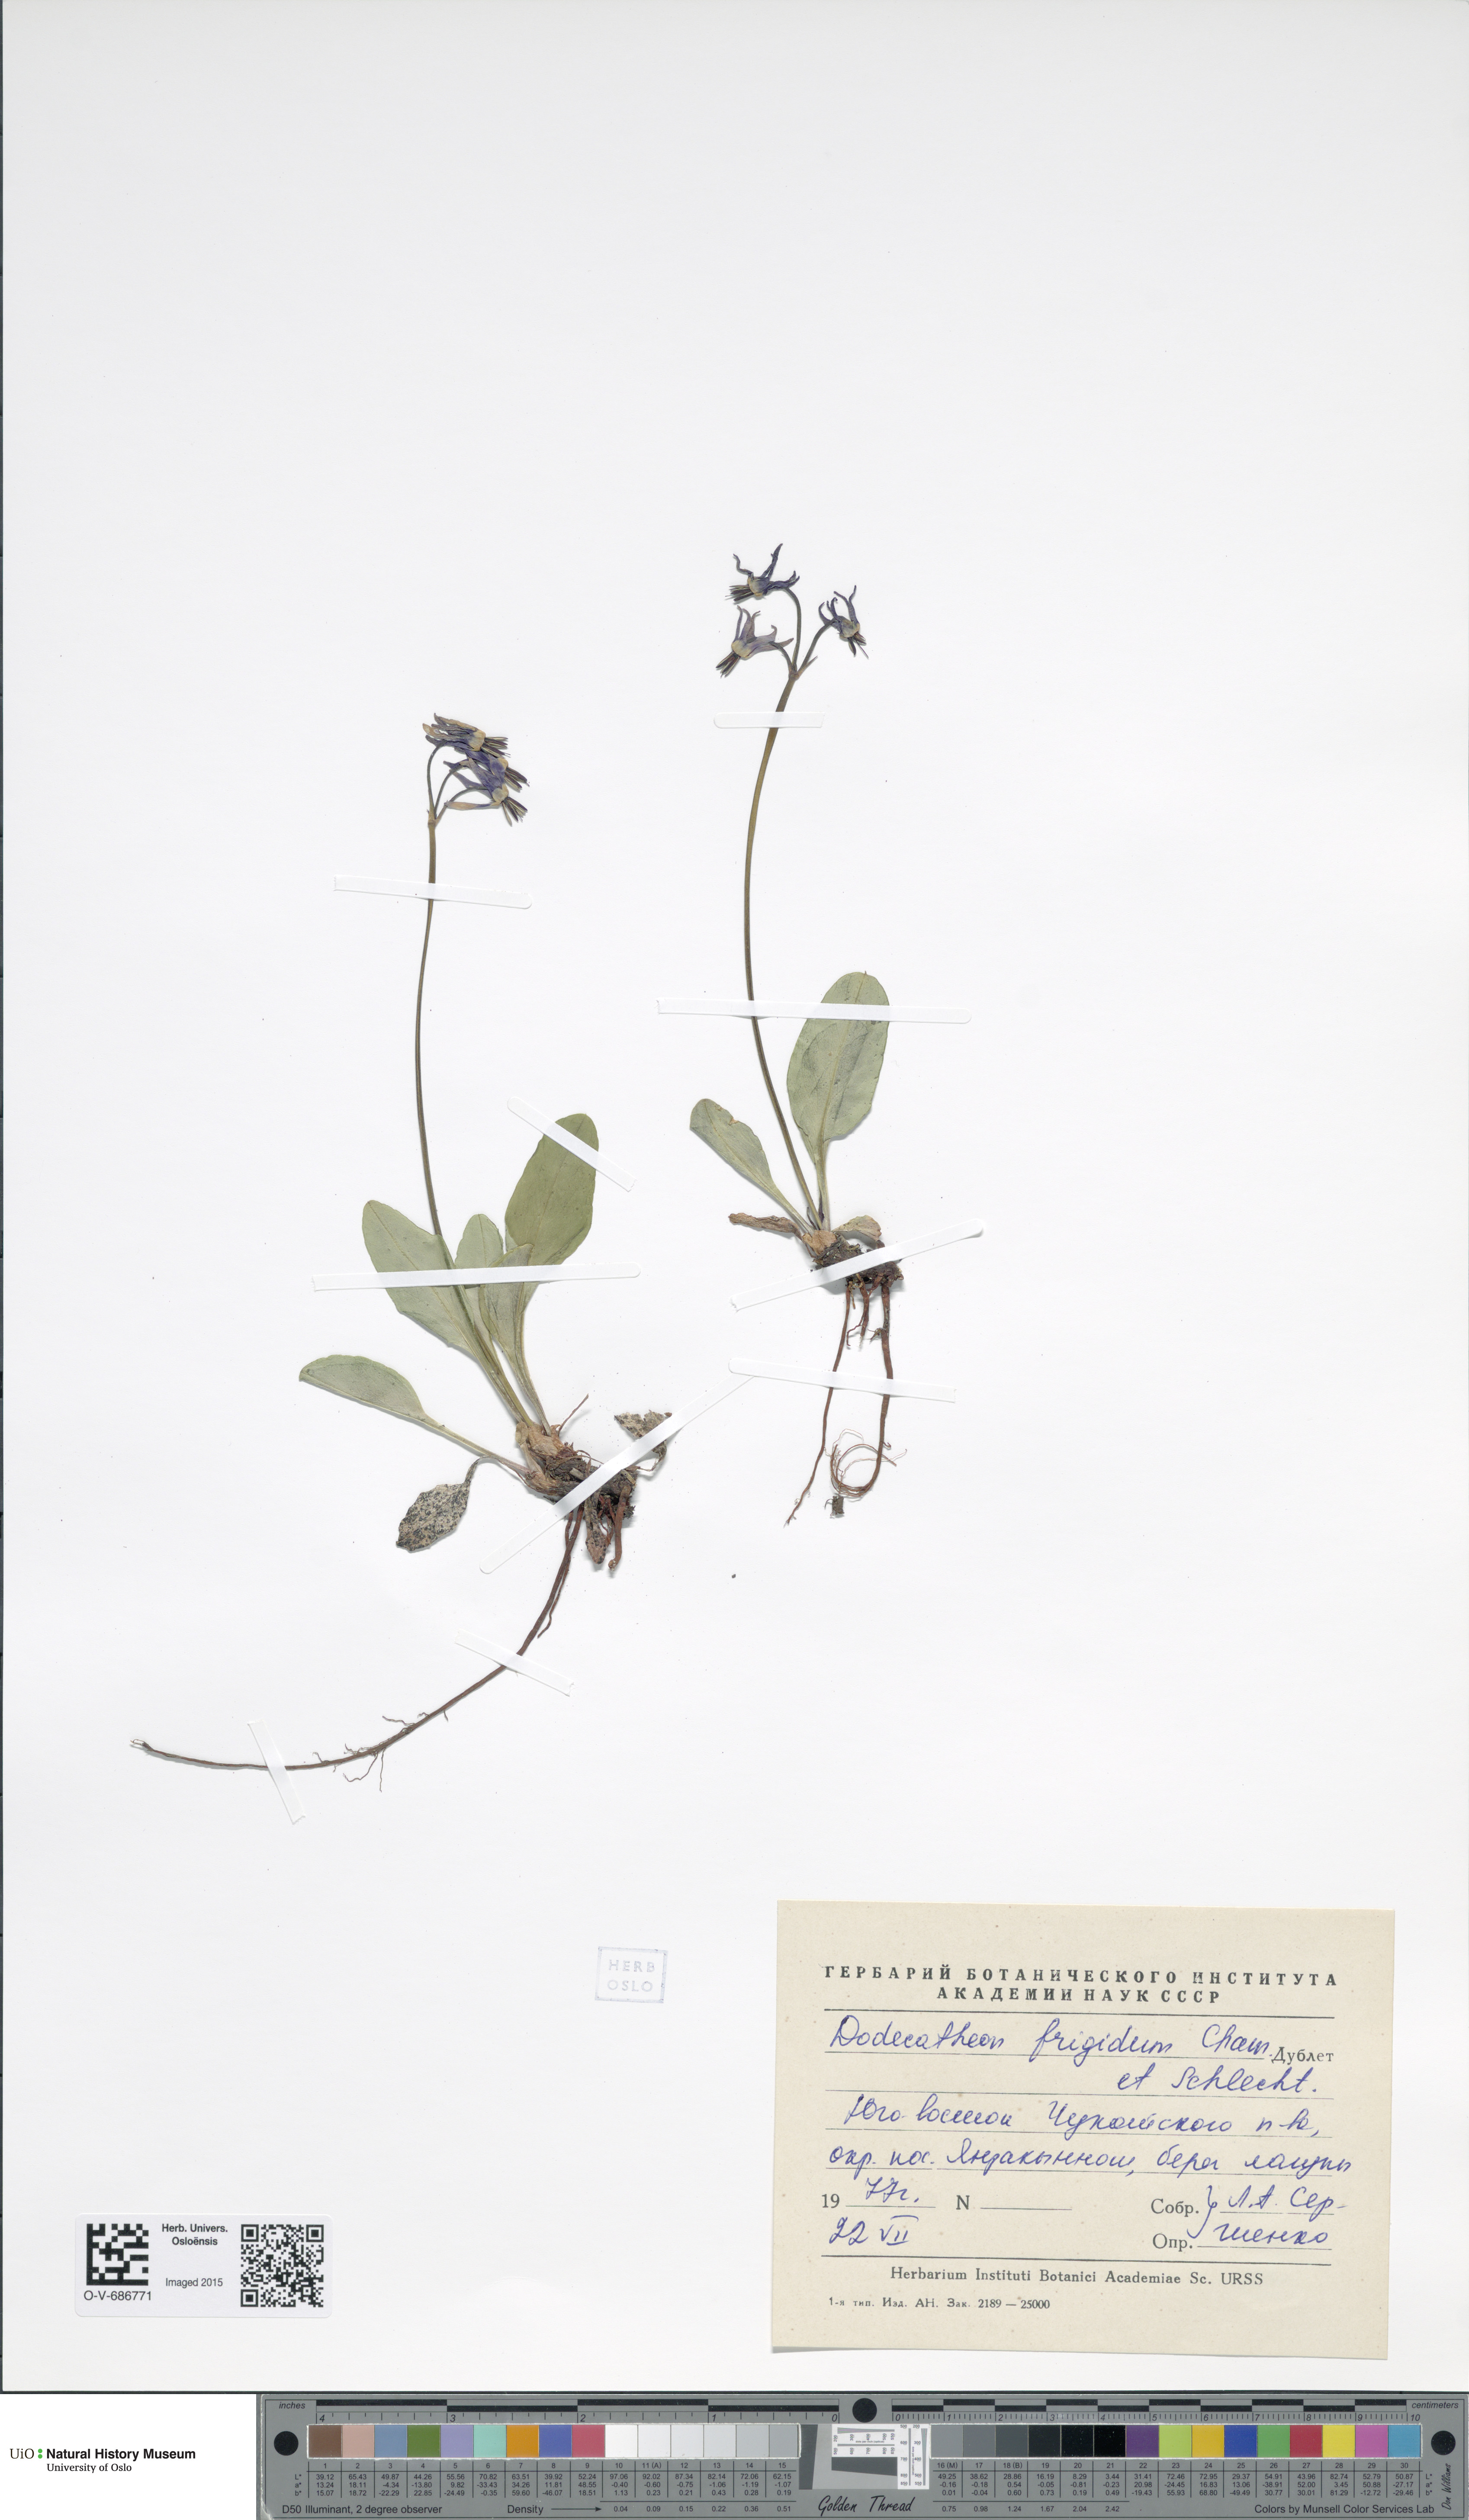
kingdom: Plantae
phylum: Tracheophyta
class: Magnoliopsida
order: Ericales
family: Primulaceae
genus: Dodecatheon
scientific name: Dodecatheon frigidum
